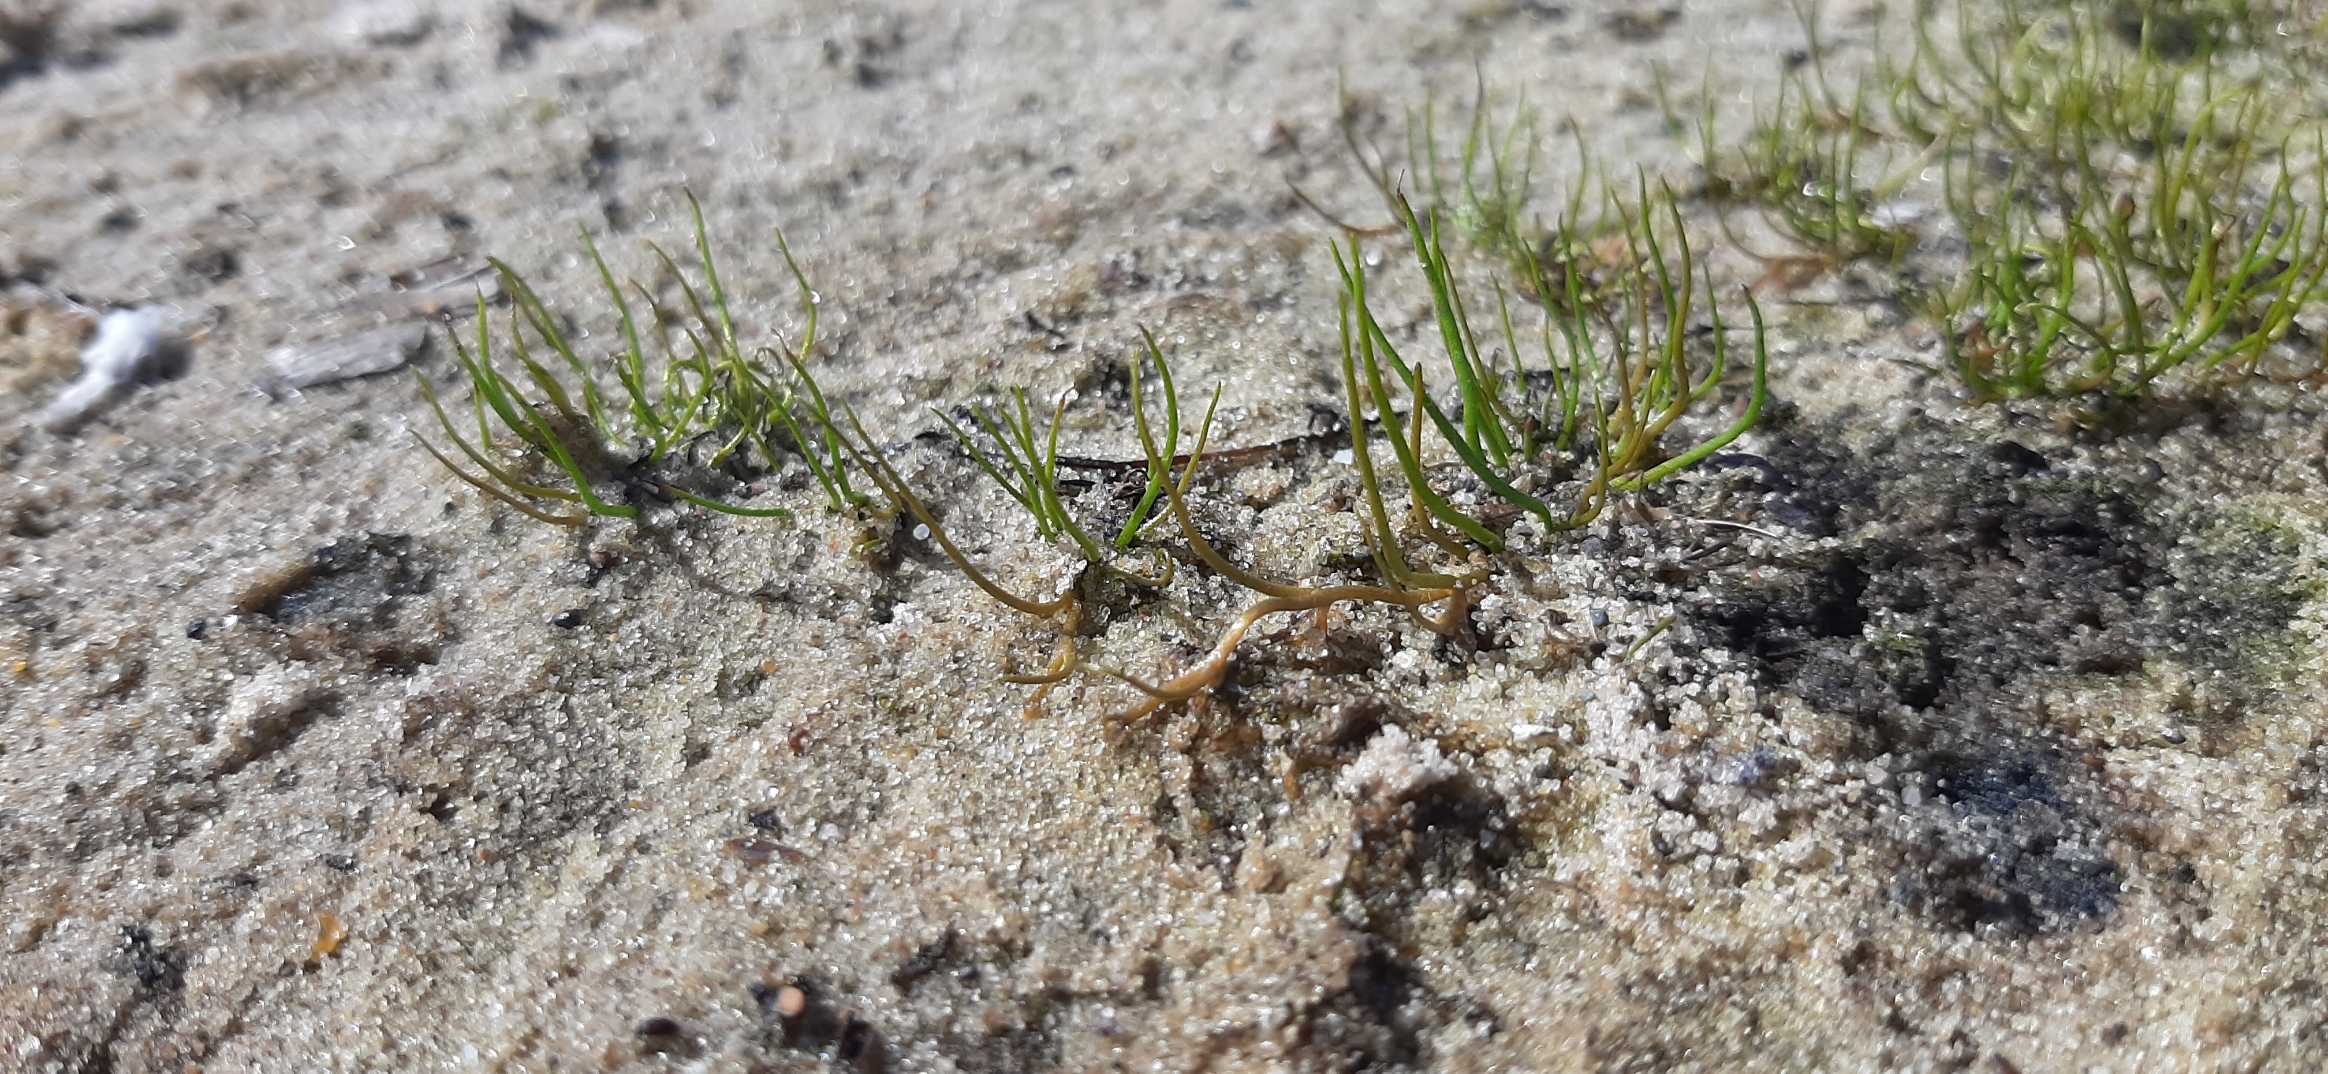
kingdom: Plantae
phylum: Tracheophyta
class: Polypodiopsida
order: Salviniales
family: Marsileaceae
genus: Pilularia
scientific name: Pilularia globulifera
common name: Pilledrager
